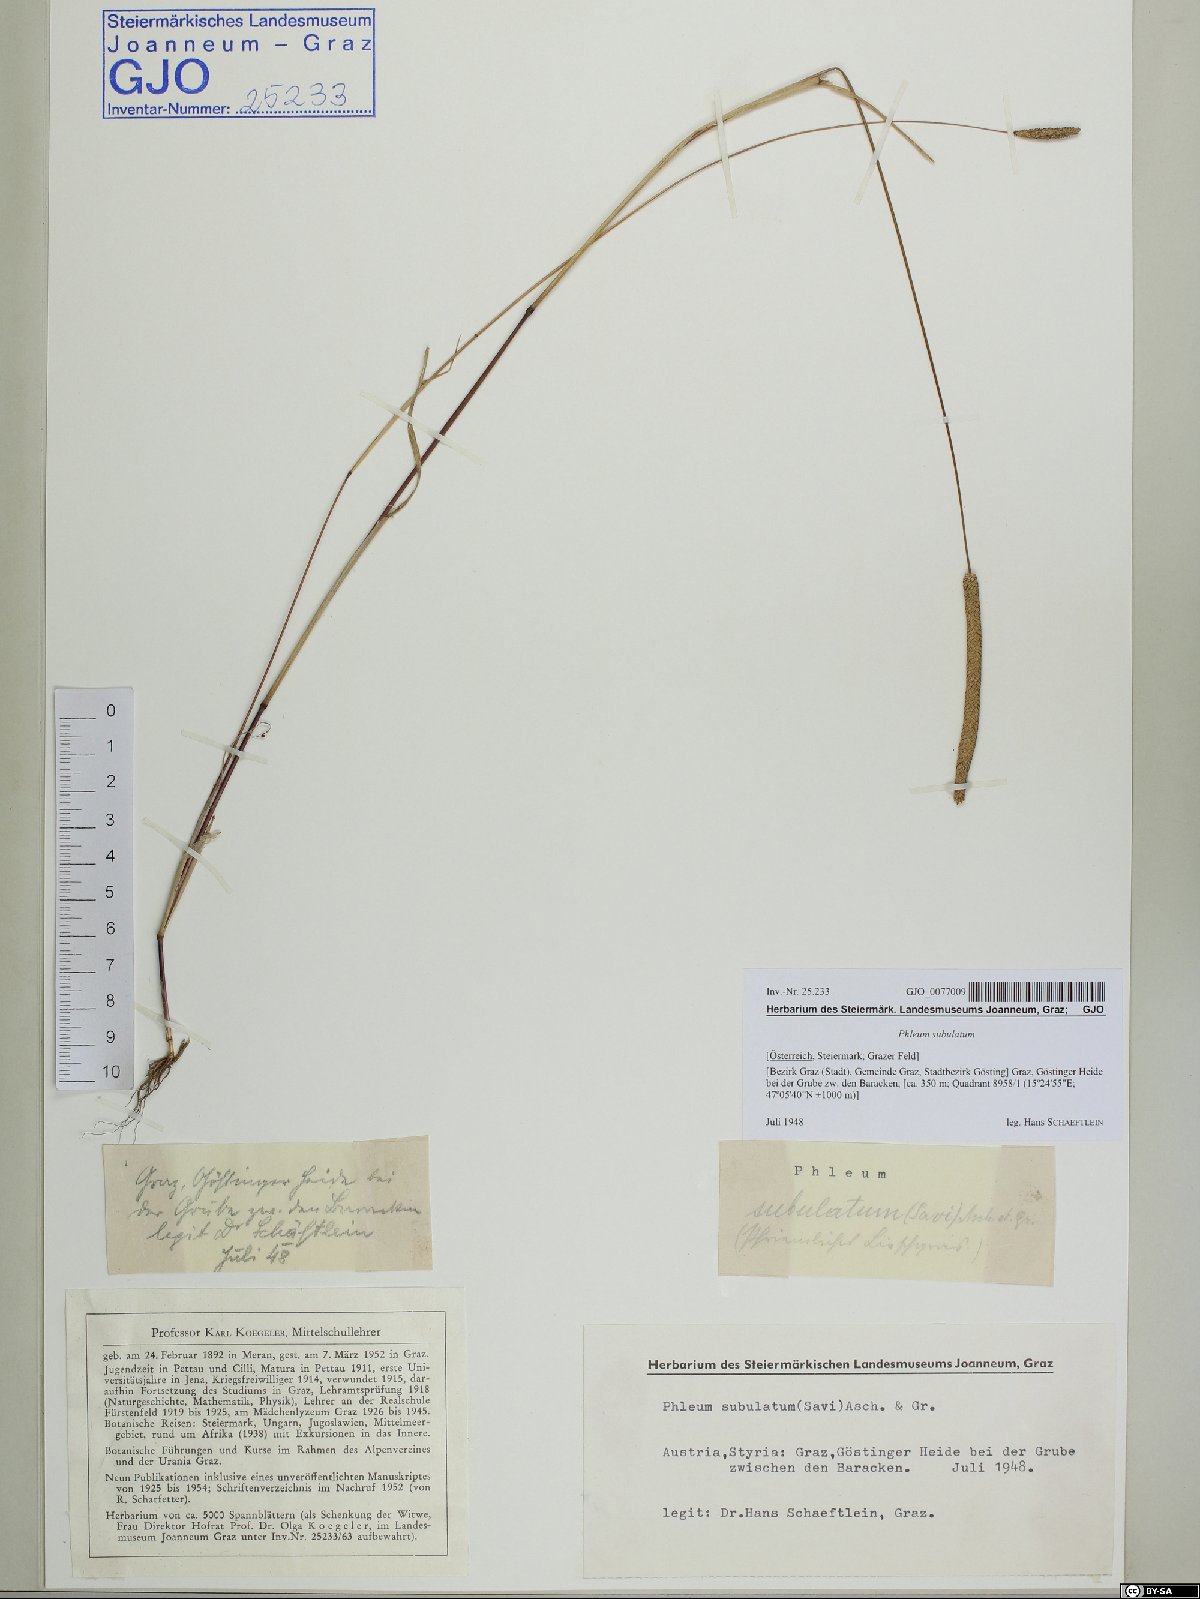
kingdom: Plantae
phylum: Tracheophyta
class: Liliopsida
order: Poales
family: Poaceae
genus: Phleum
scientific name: Phleum subulatum
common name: Italian timothy
